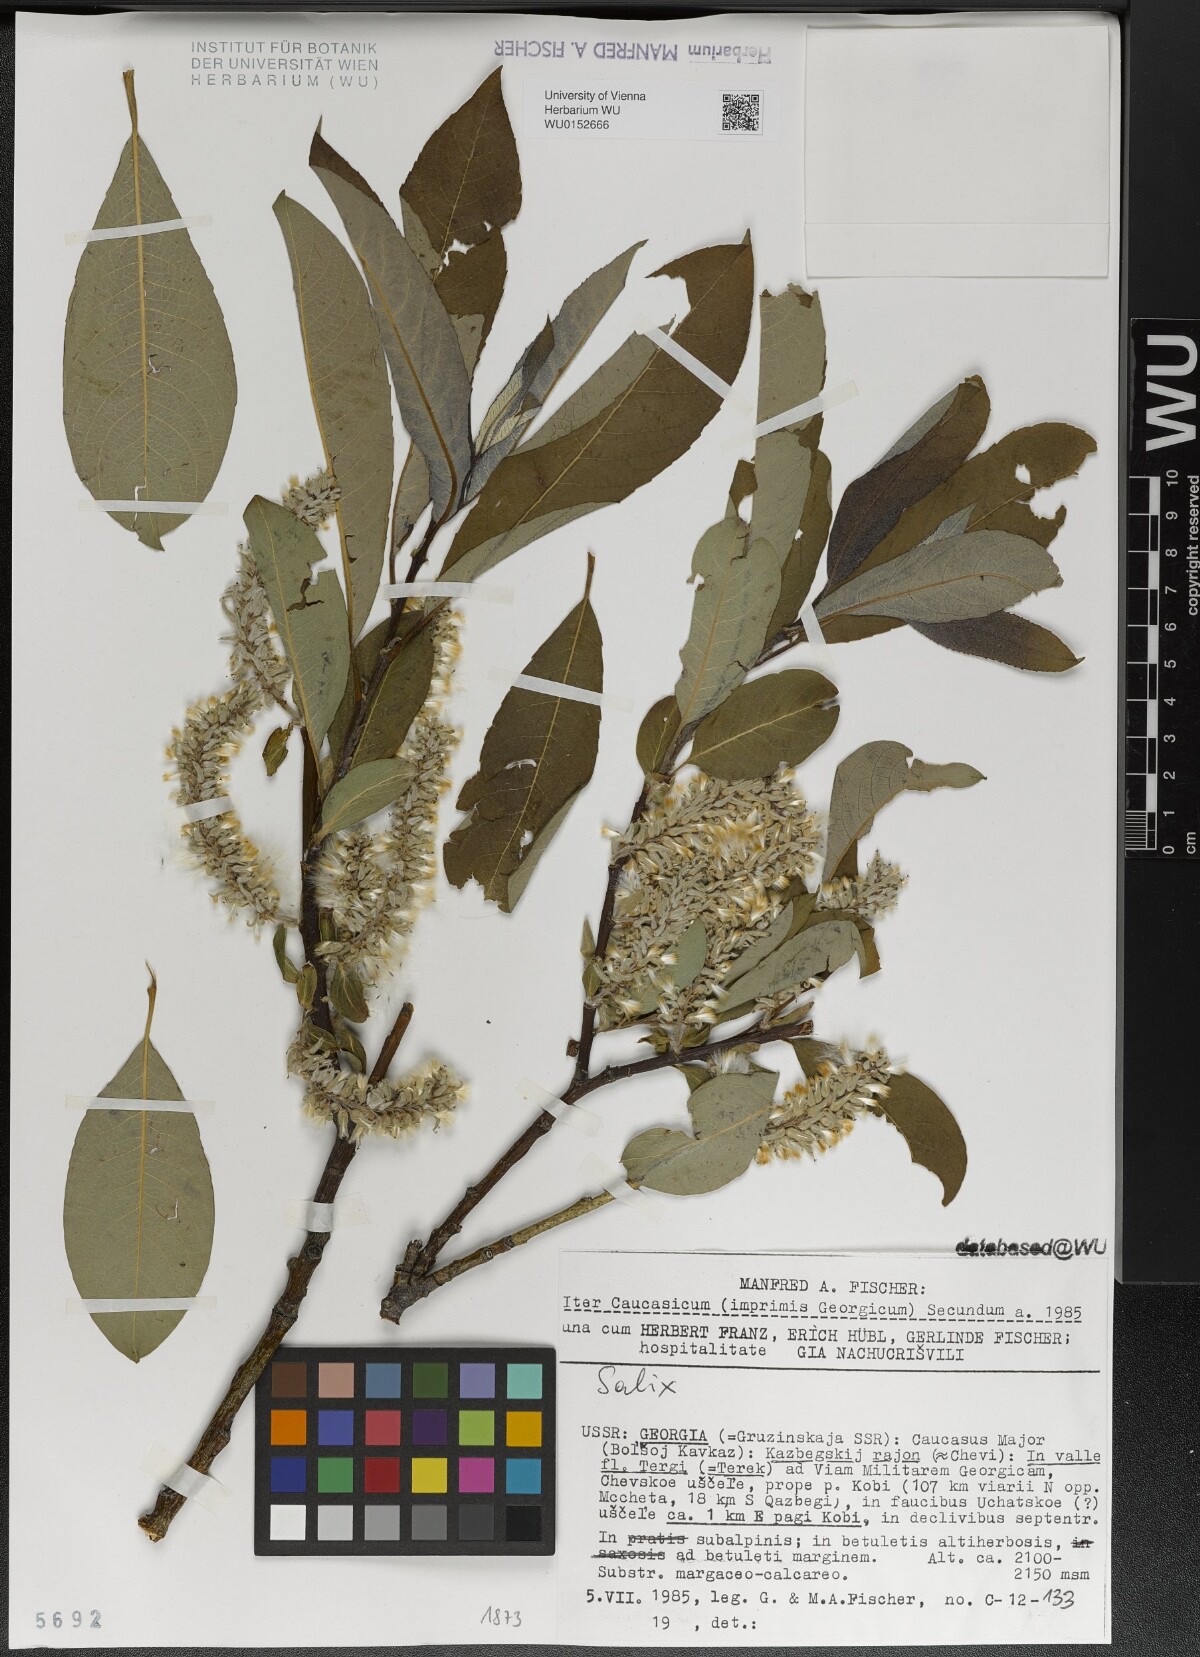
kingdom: Plantae
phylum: Tracheophyta
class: Magnoliopsida
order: Malpighiales
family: Salicaceae
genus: Salix
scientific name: Salix
